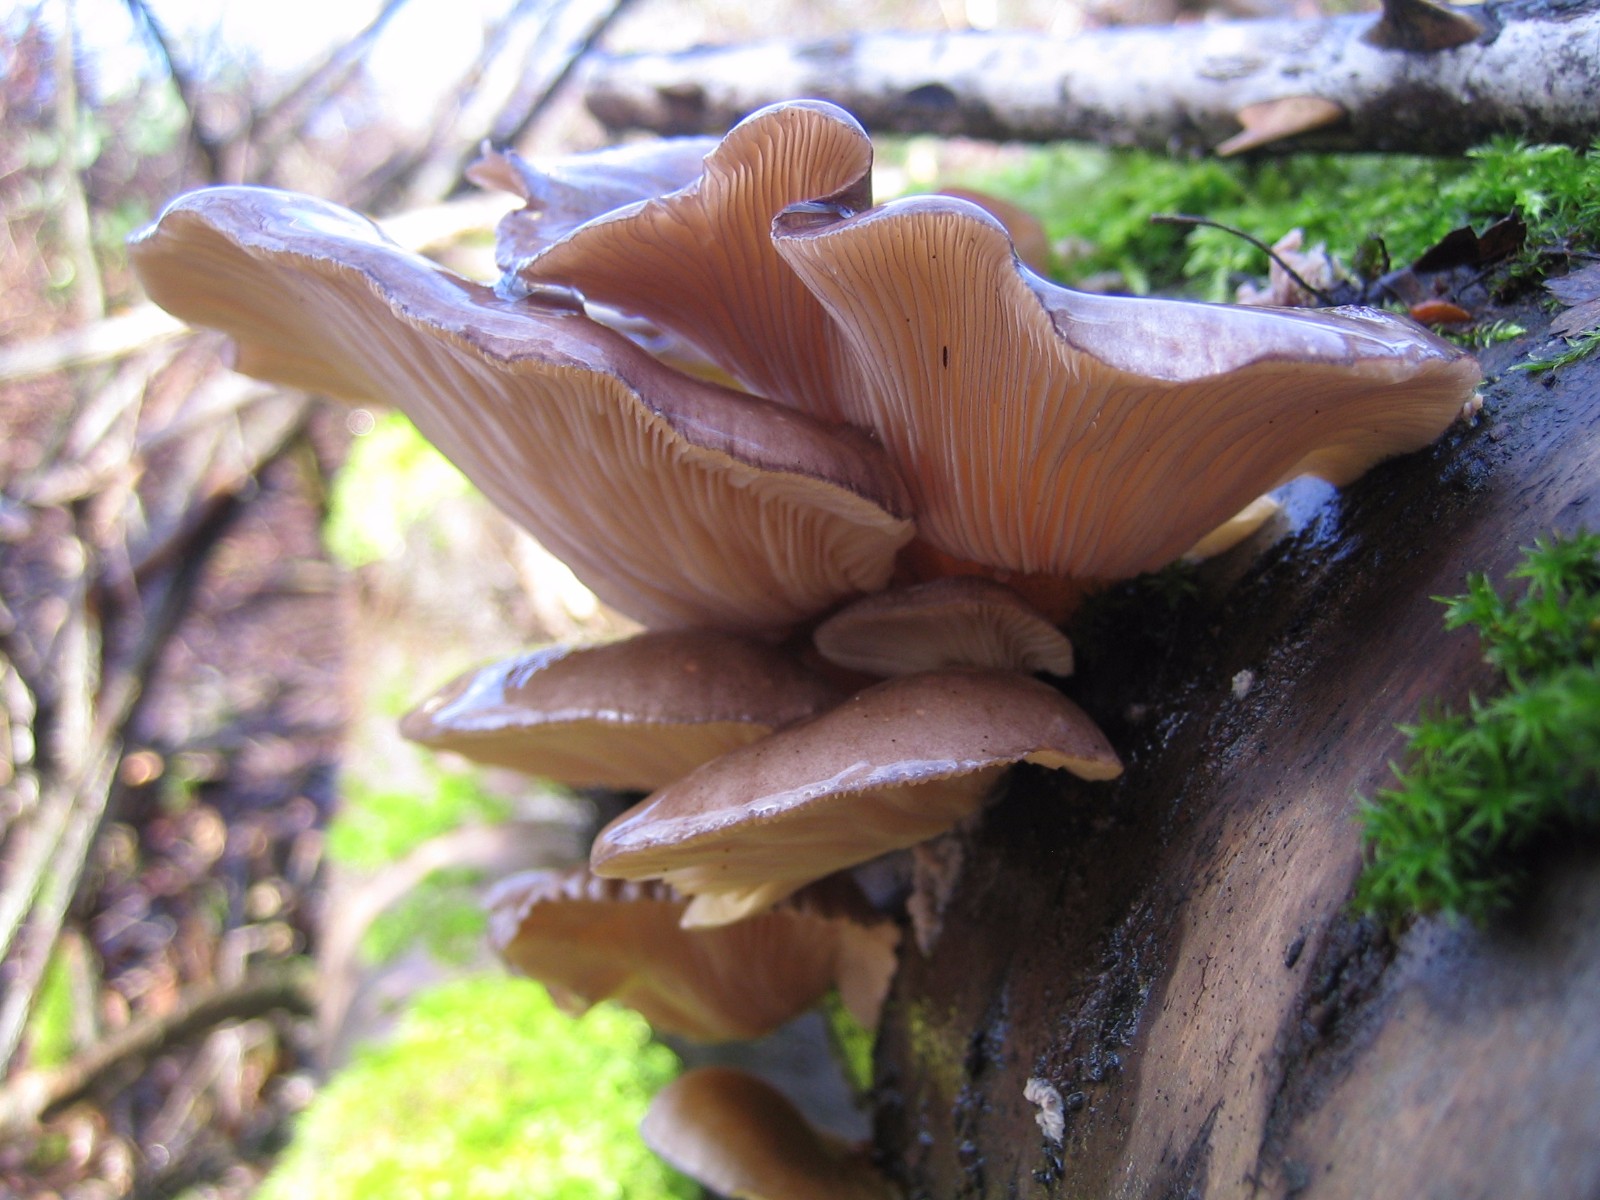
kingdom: Fungi
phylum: Basidiomycota
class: Agaricomycetes
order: Agaricales
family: Sarcomyxaceae
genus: Sarcomyxa
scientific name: Sarcomyxa serotina
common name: gummihat
